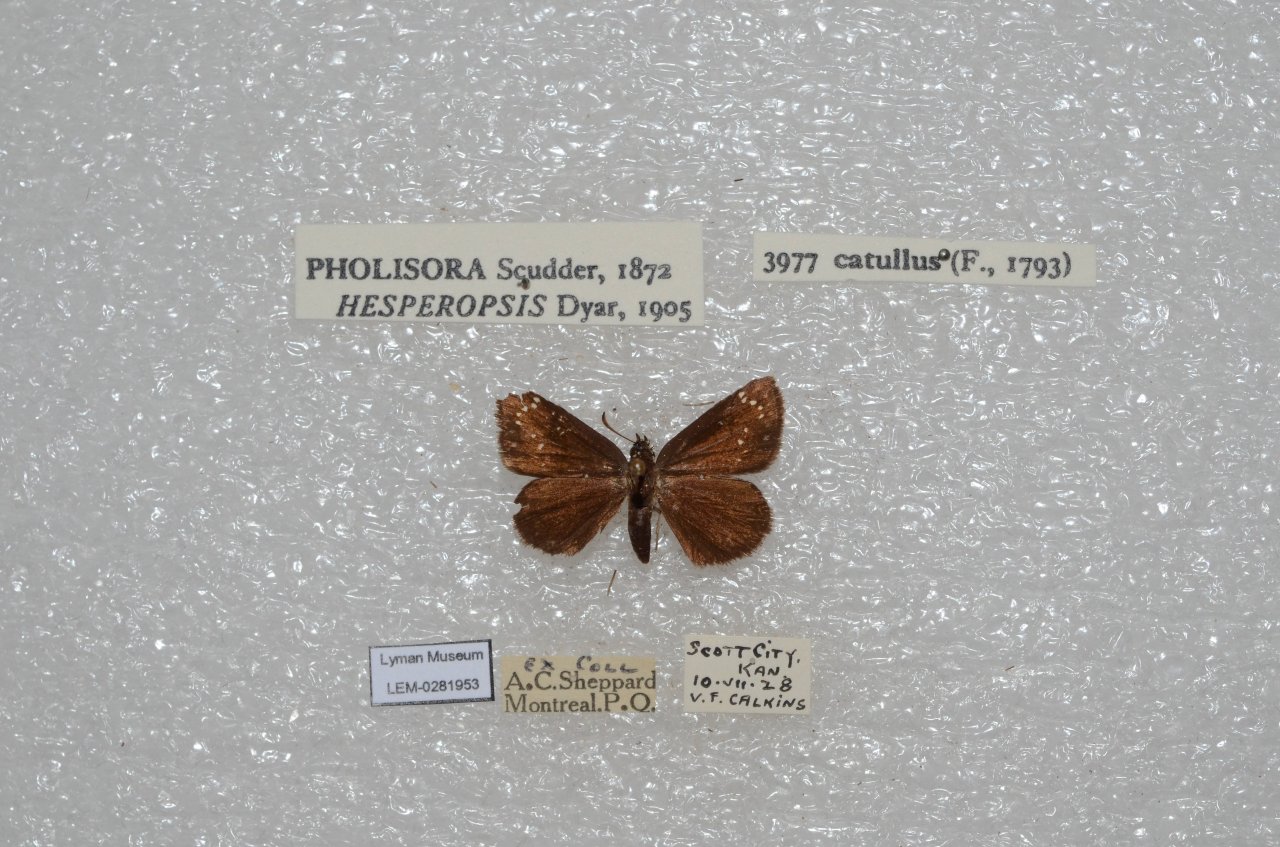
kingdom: Animalia
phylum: Arthropoda
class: Insecta
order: Lepidoptera
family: Hesperiidae
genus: Pholisora
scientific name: Pholisora catullus
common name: Common Sootywing
